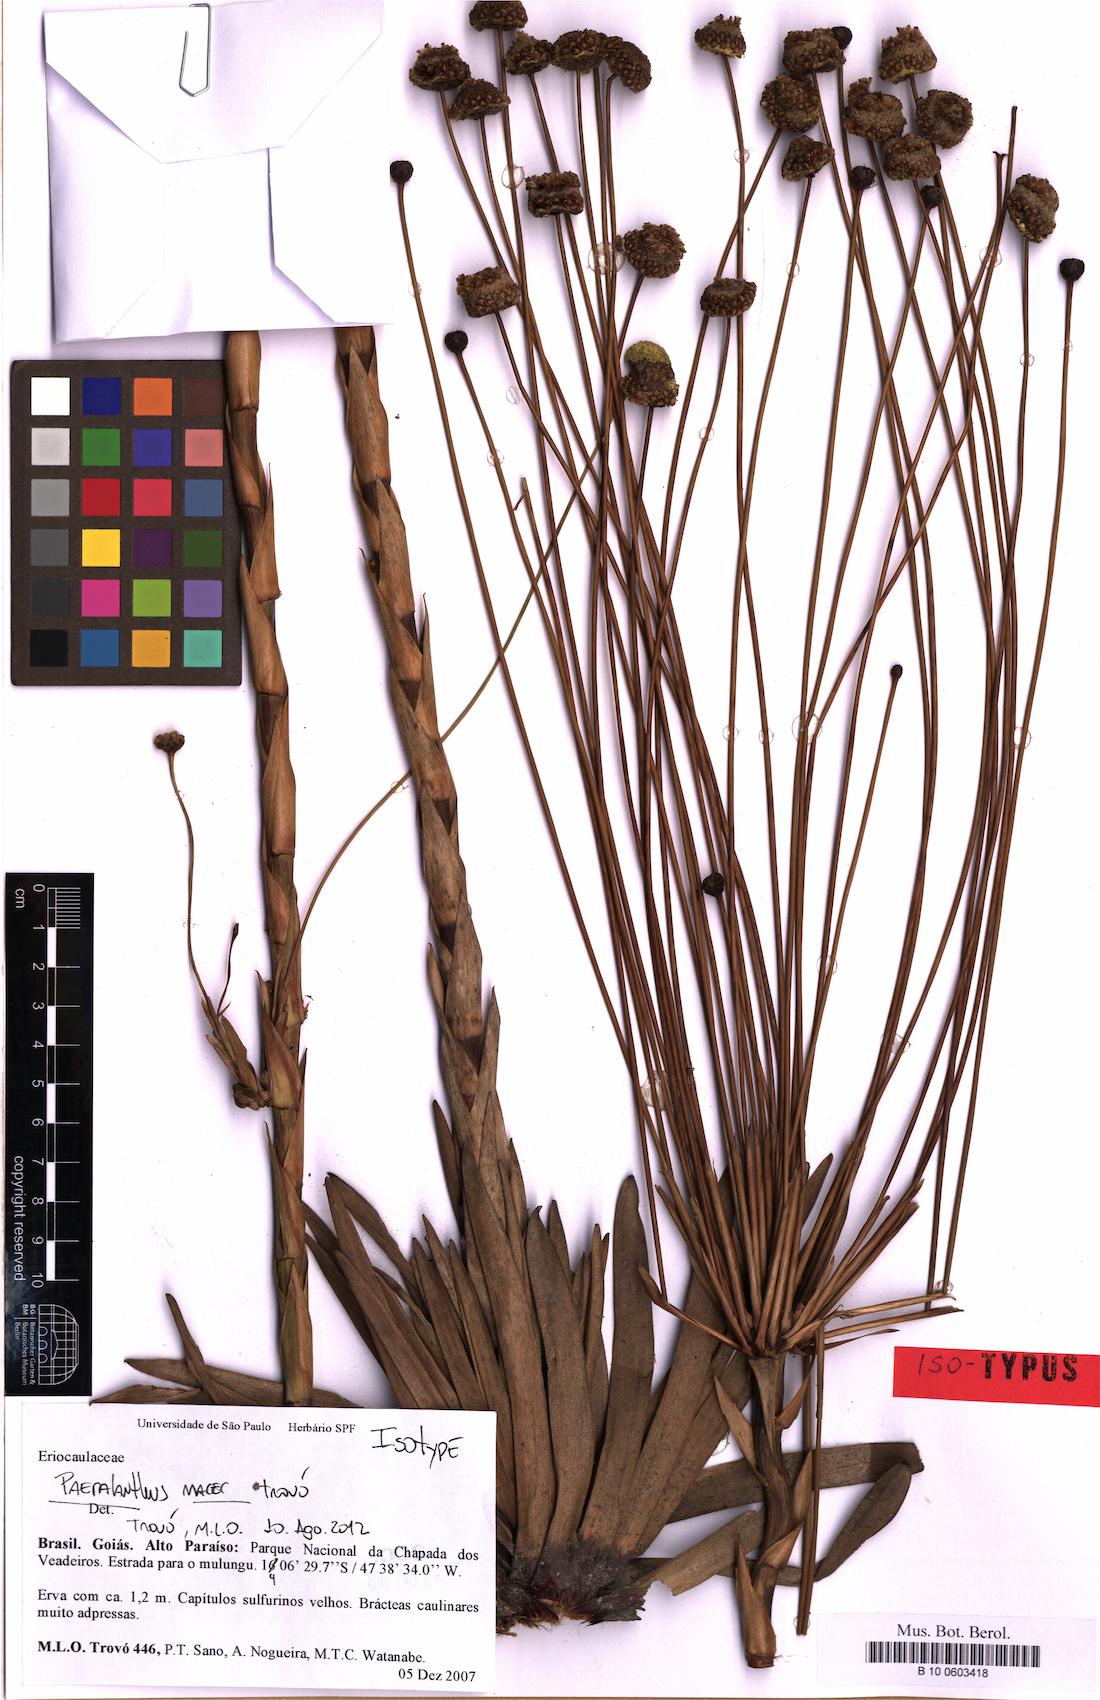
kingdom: Plantae
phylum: Tracheophyta
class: Liliopsida
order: Poales
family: Eriocaulaceae
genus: Paepalanthus
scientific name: Paepalanthus macer
